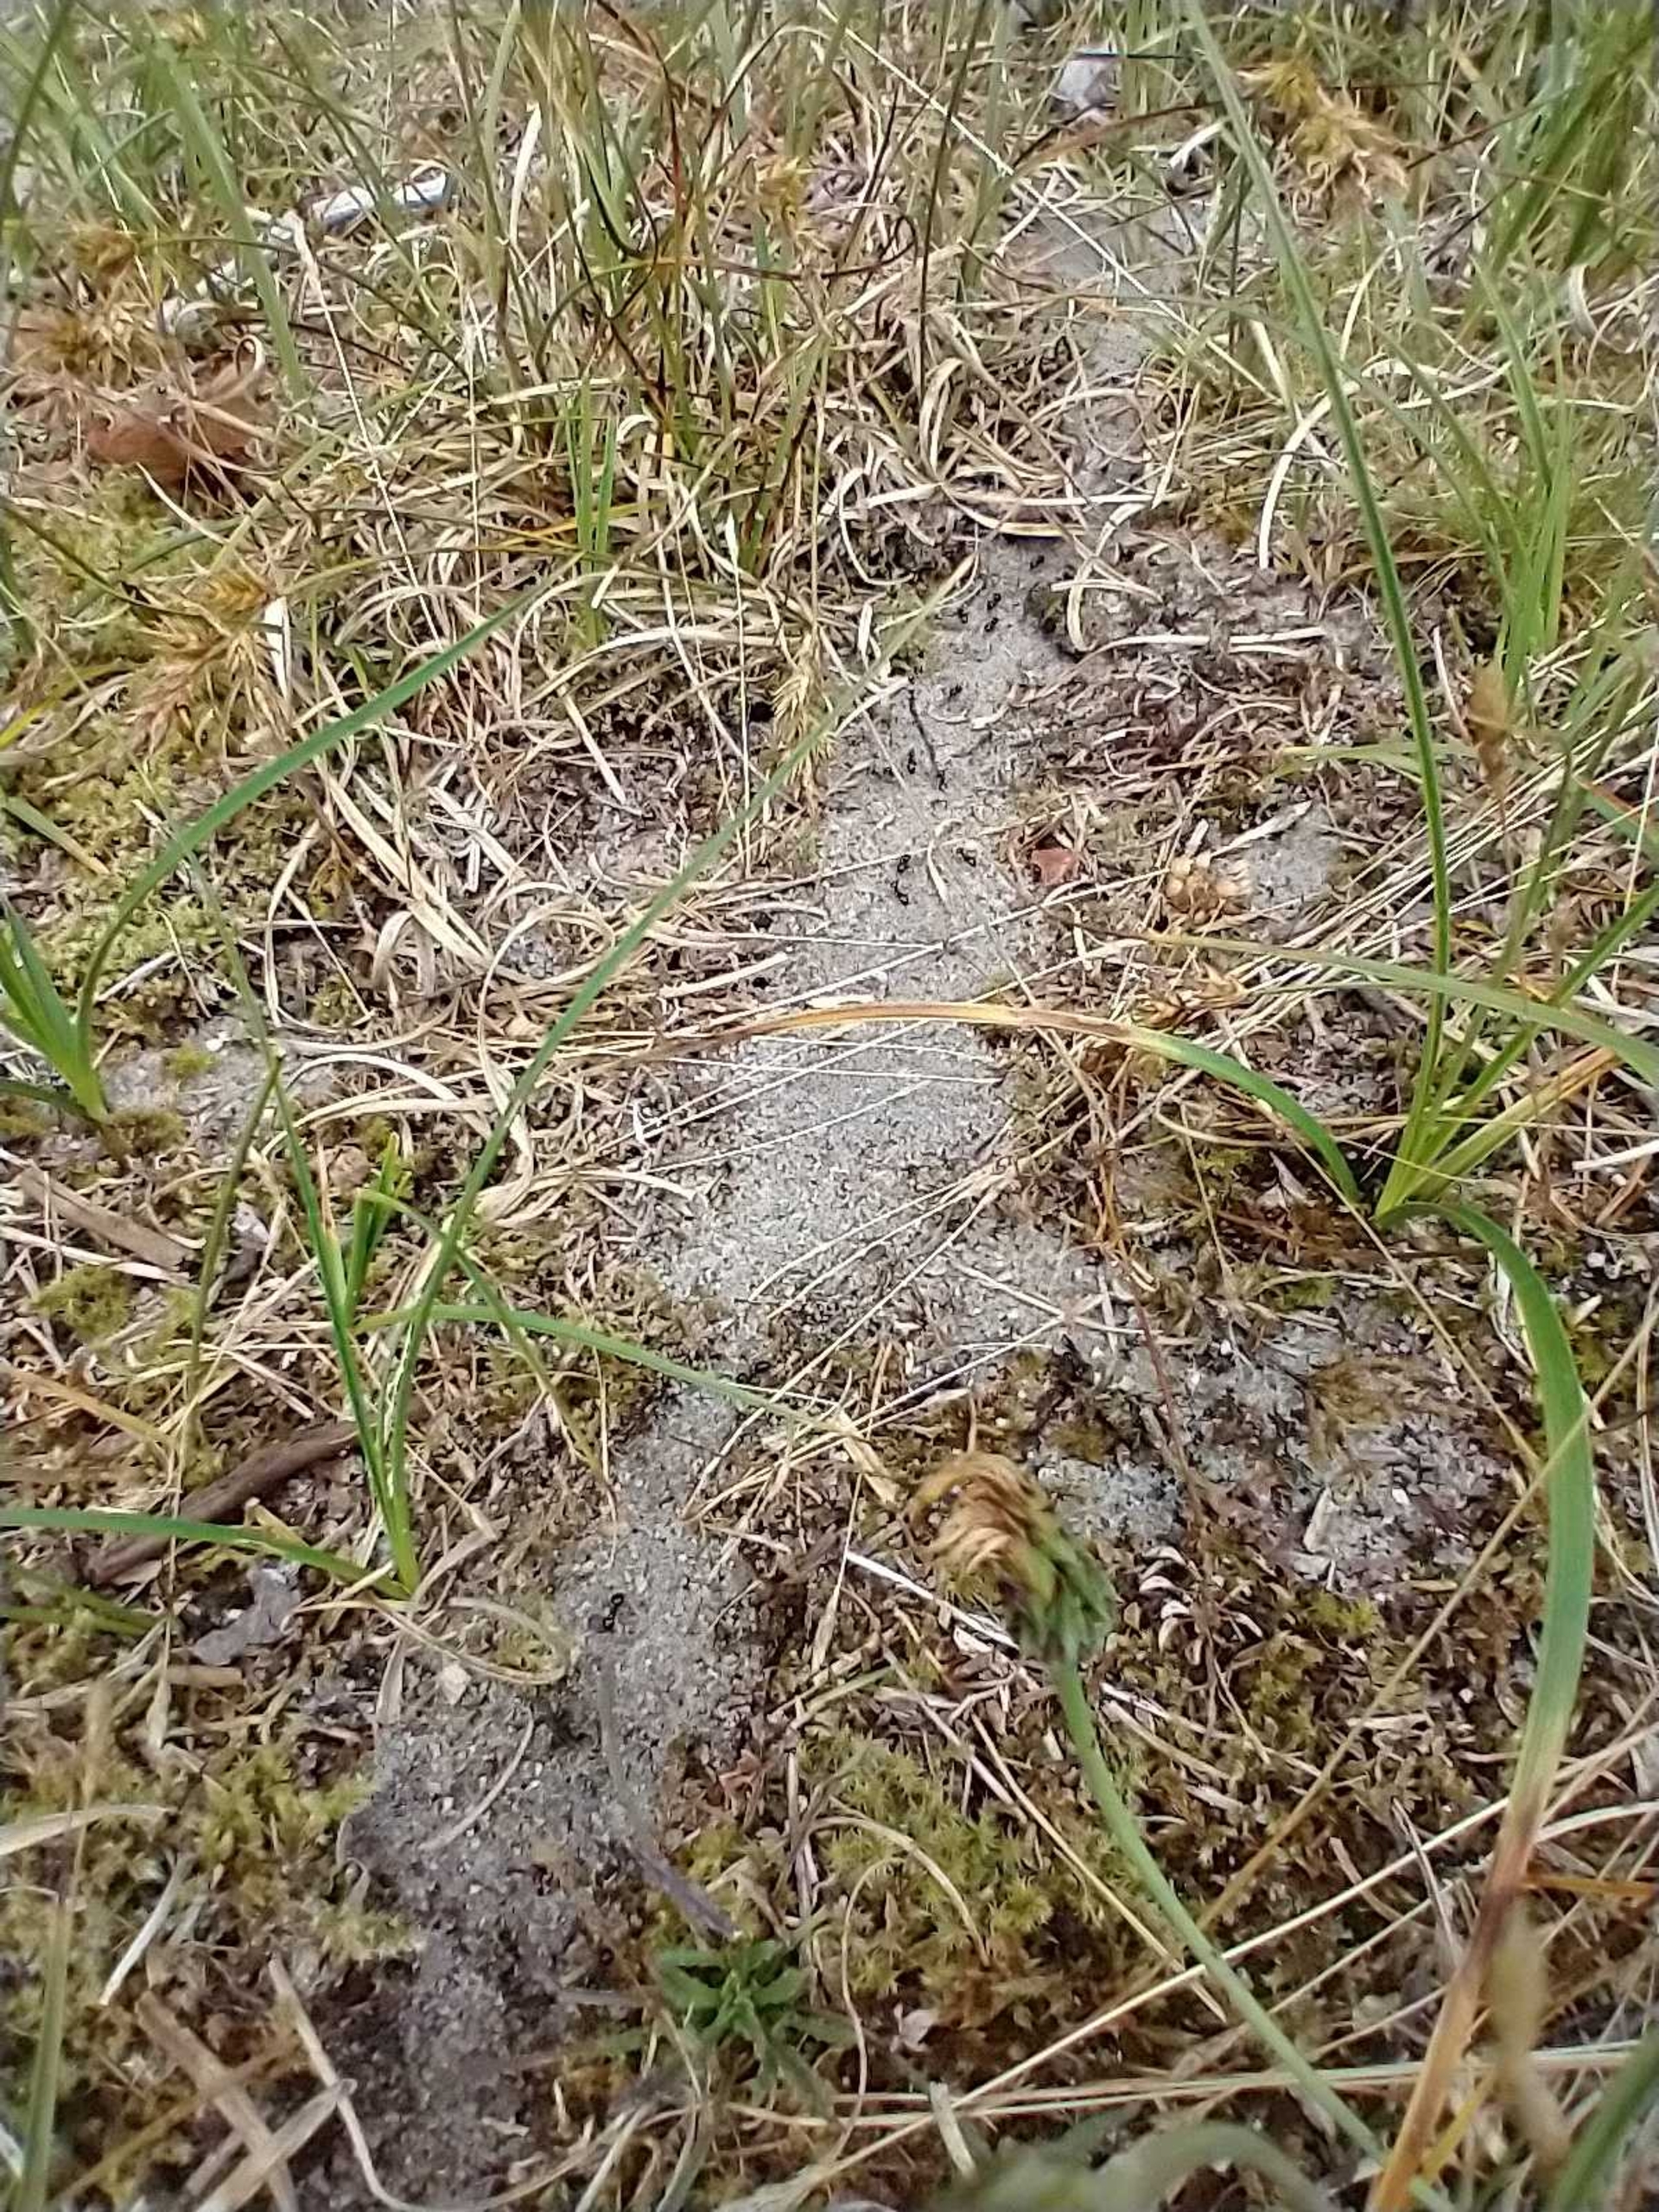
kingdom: Animalia
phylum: Arthropoda
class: Insecta
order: Hymenoptera
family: Formicidae
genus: Lasius
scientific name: Lasius fuliginosus
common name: Orangemyre
